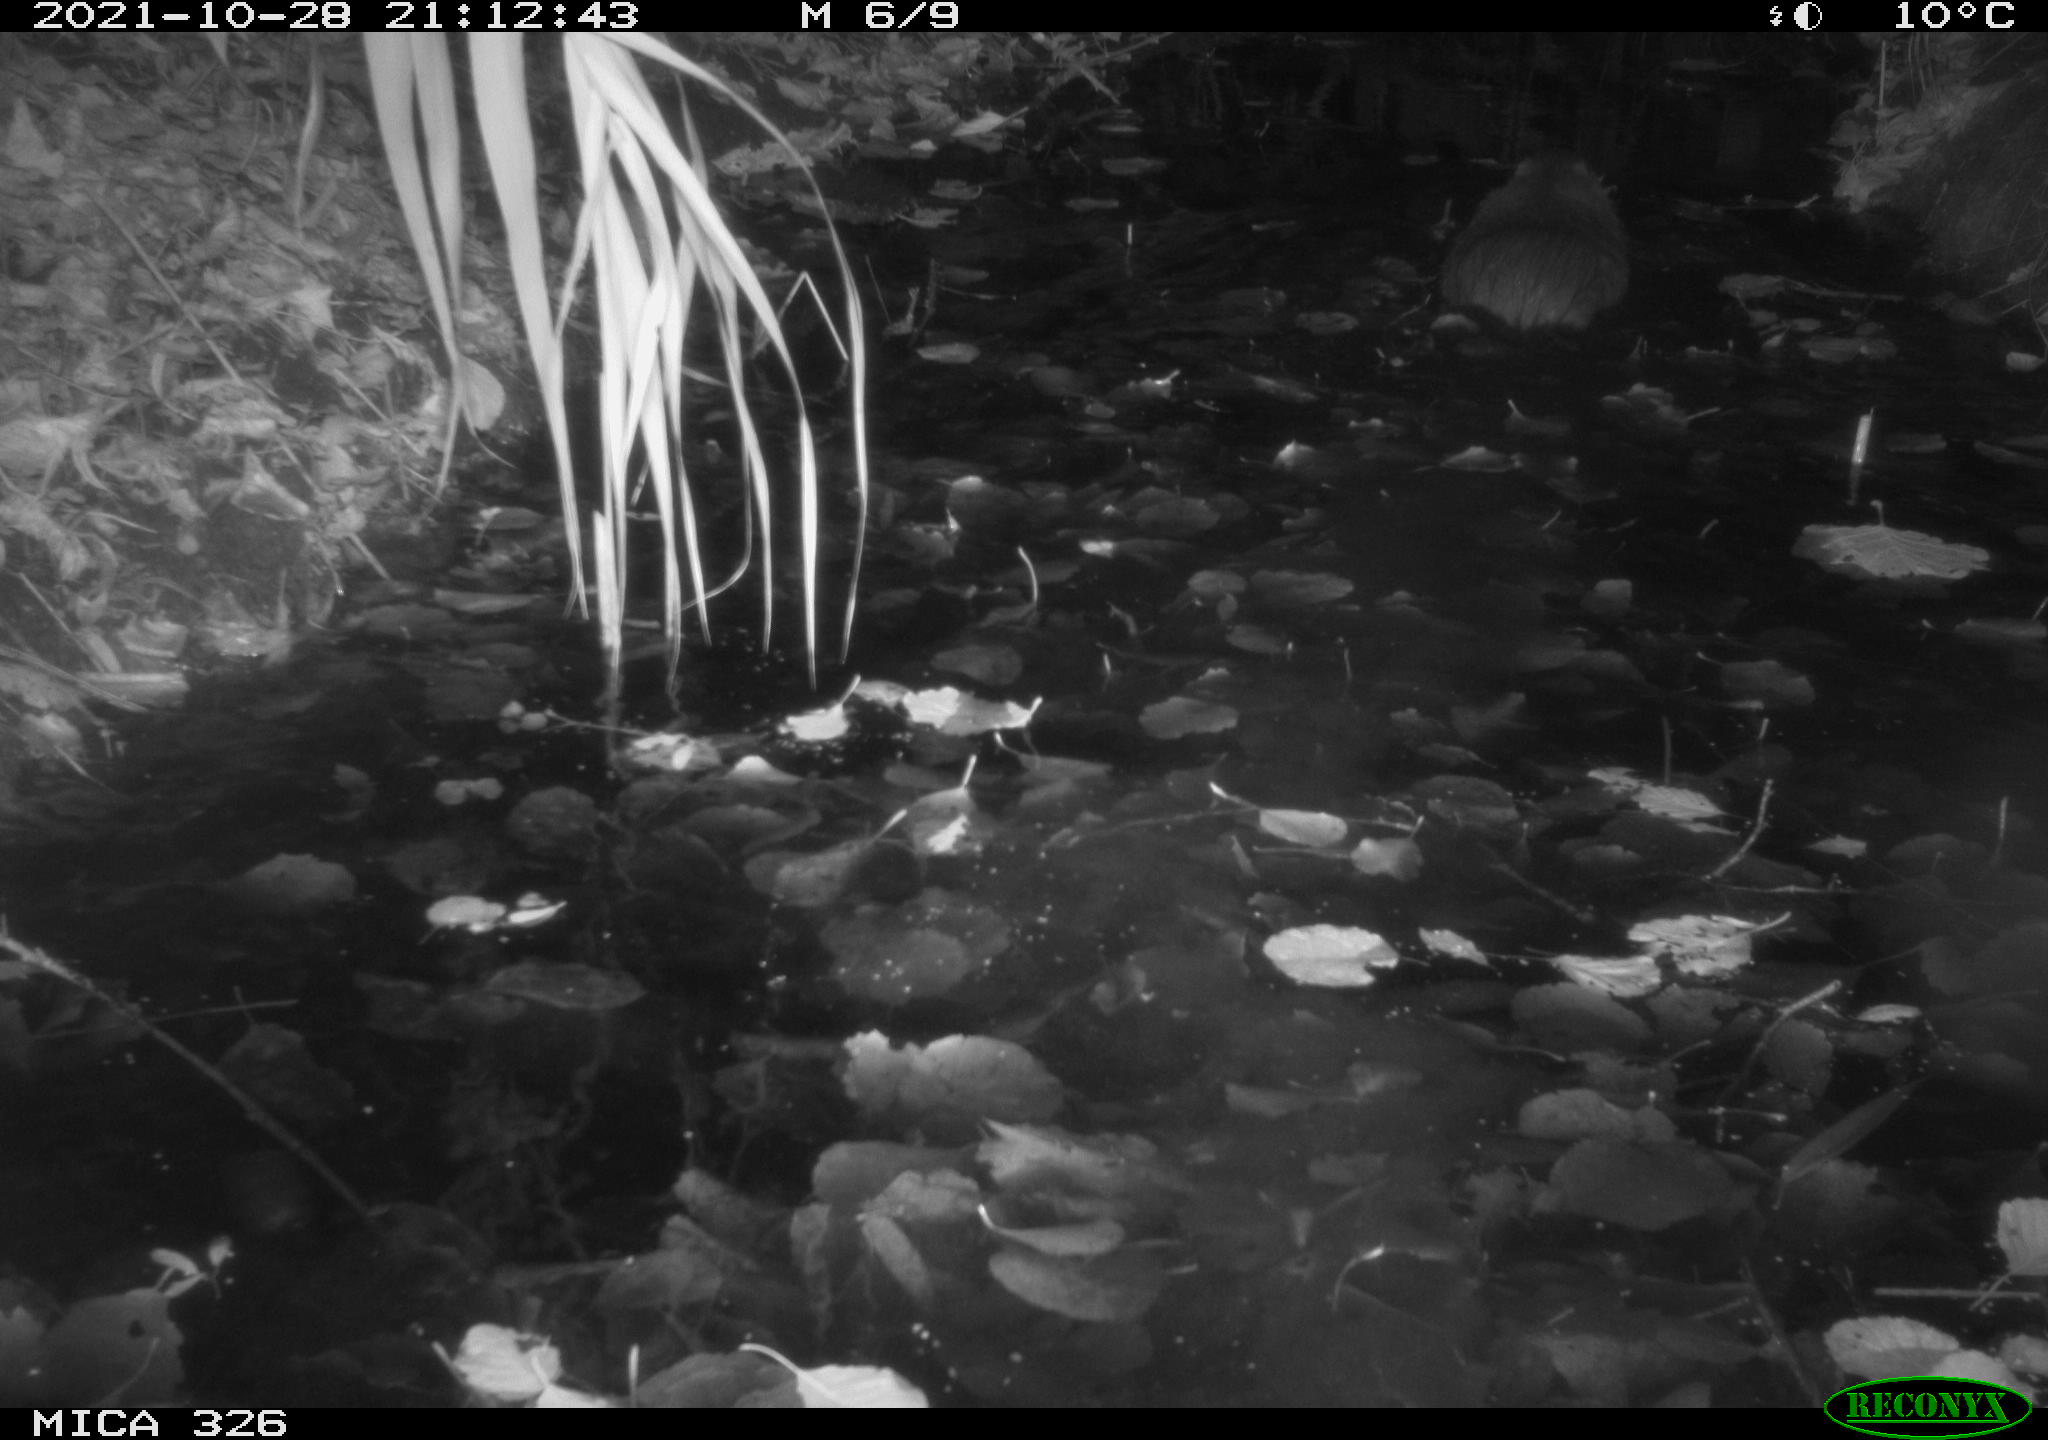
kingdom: Animalia
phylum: Chordata
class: Mammalia
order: Rodentia
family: Myocastoridae
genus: Myocastor
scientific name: Myocastor coypus
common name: Coypu
